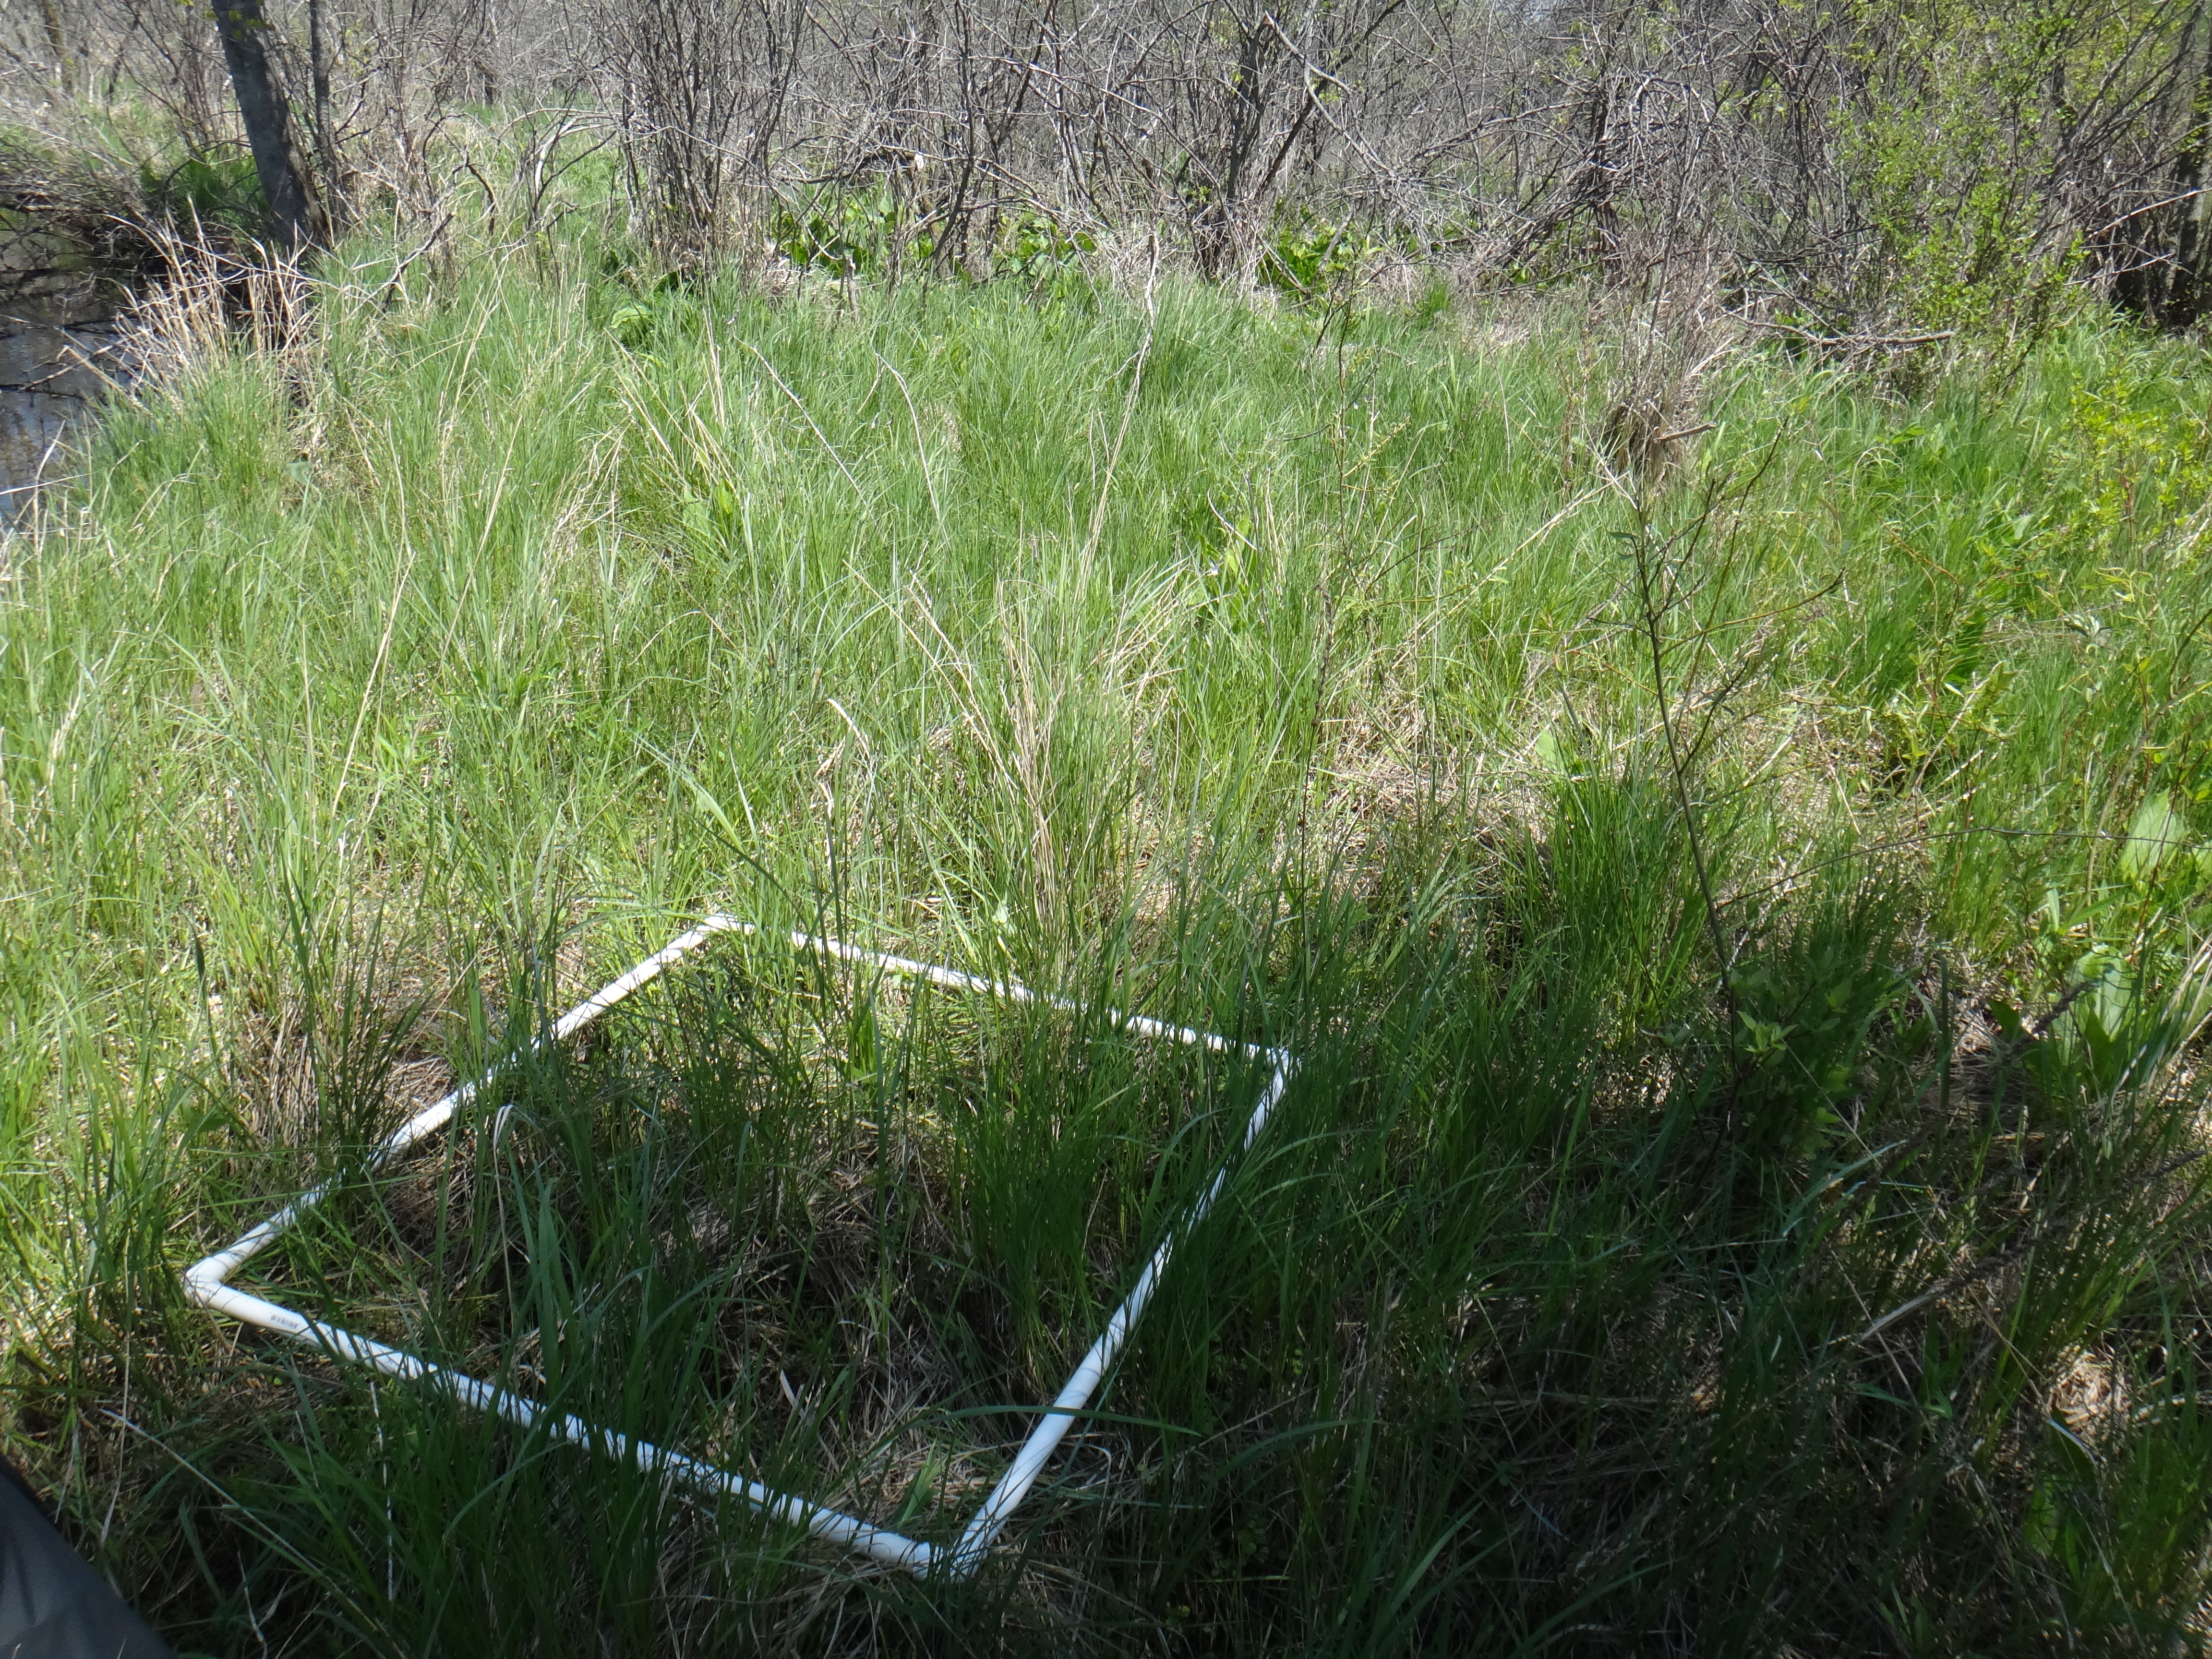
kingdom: Plantae
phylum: Tracheophyta
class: Magnoliopsida
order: Ericales
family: Balsaminaceae
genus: Impatiens
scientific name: Impatiens capensis
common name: Orange balsam
